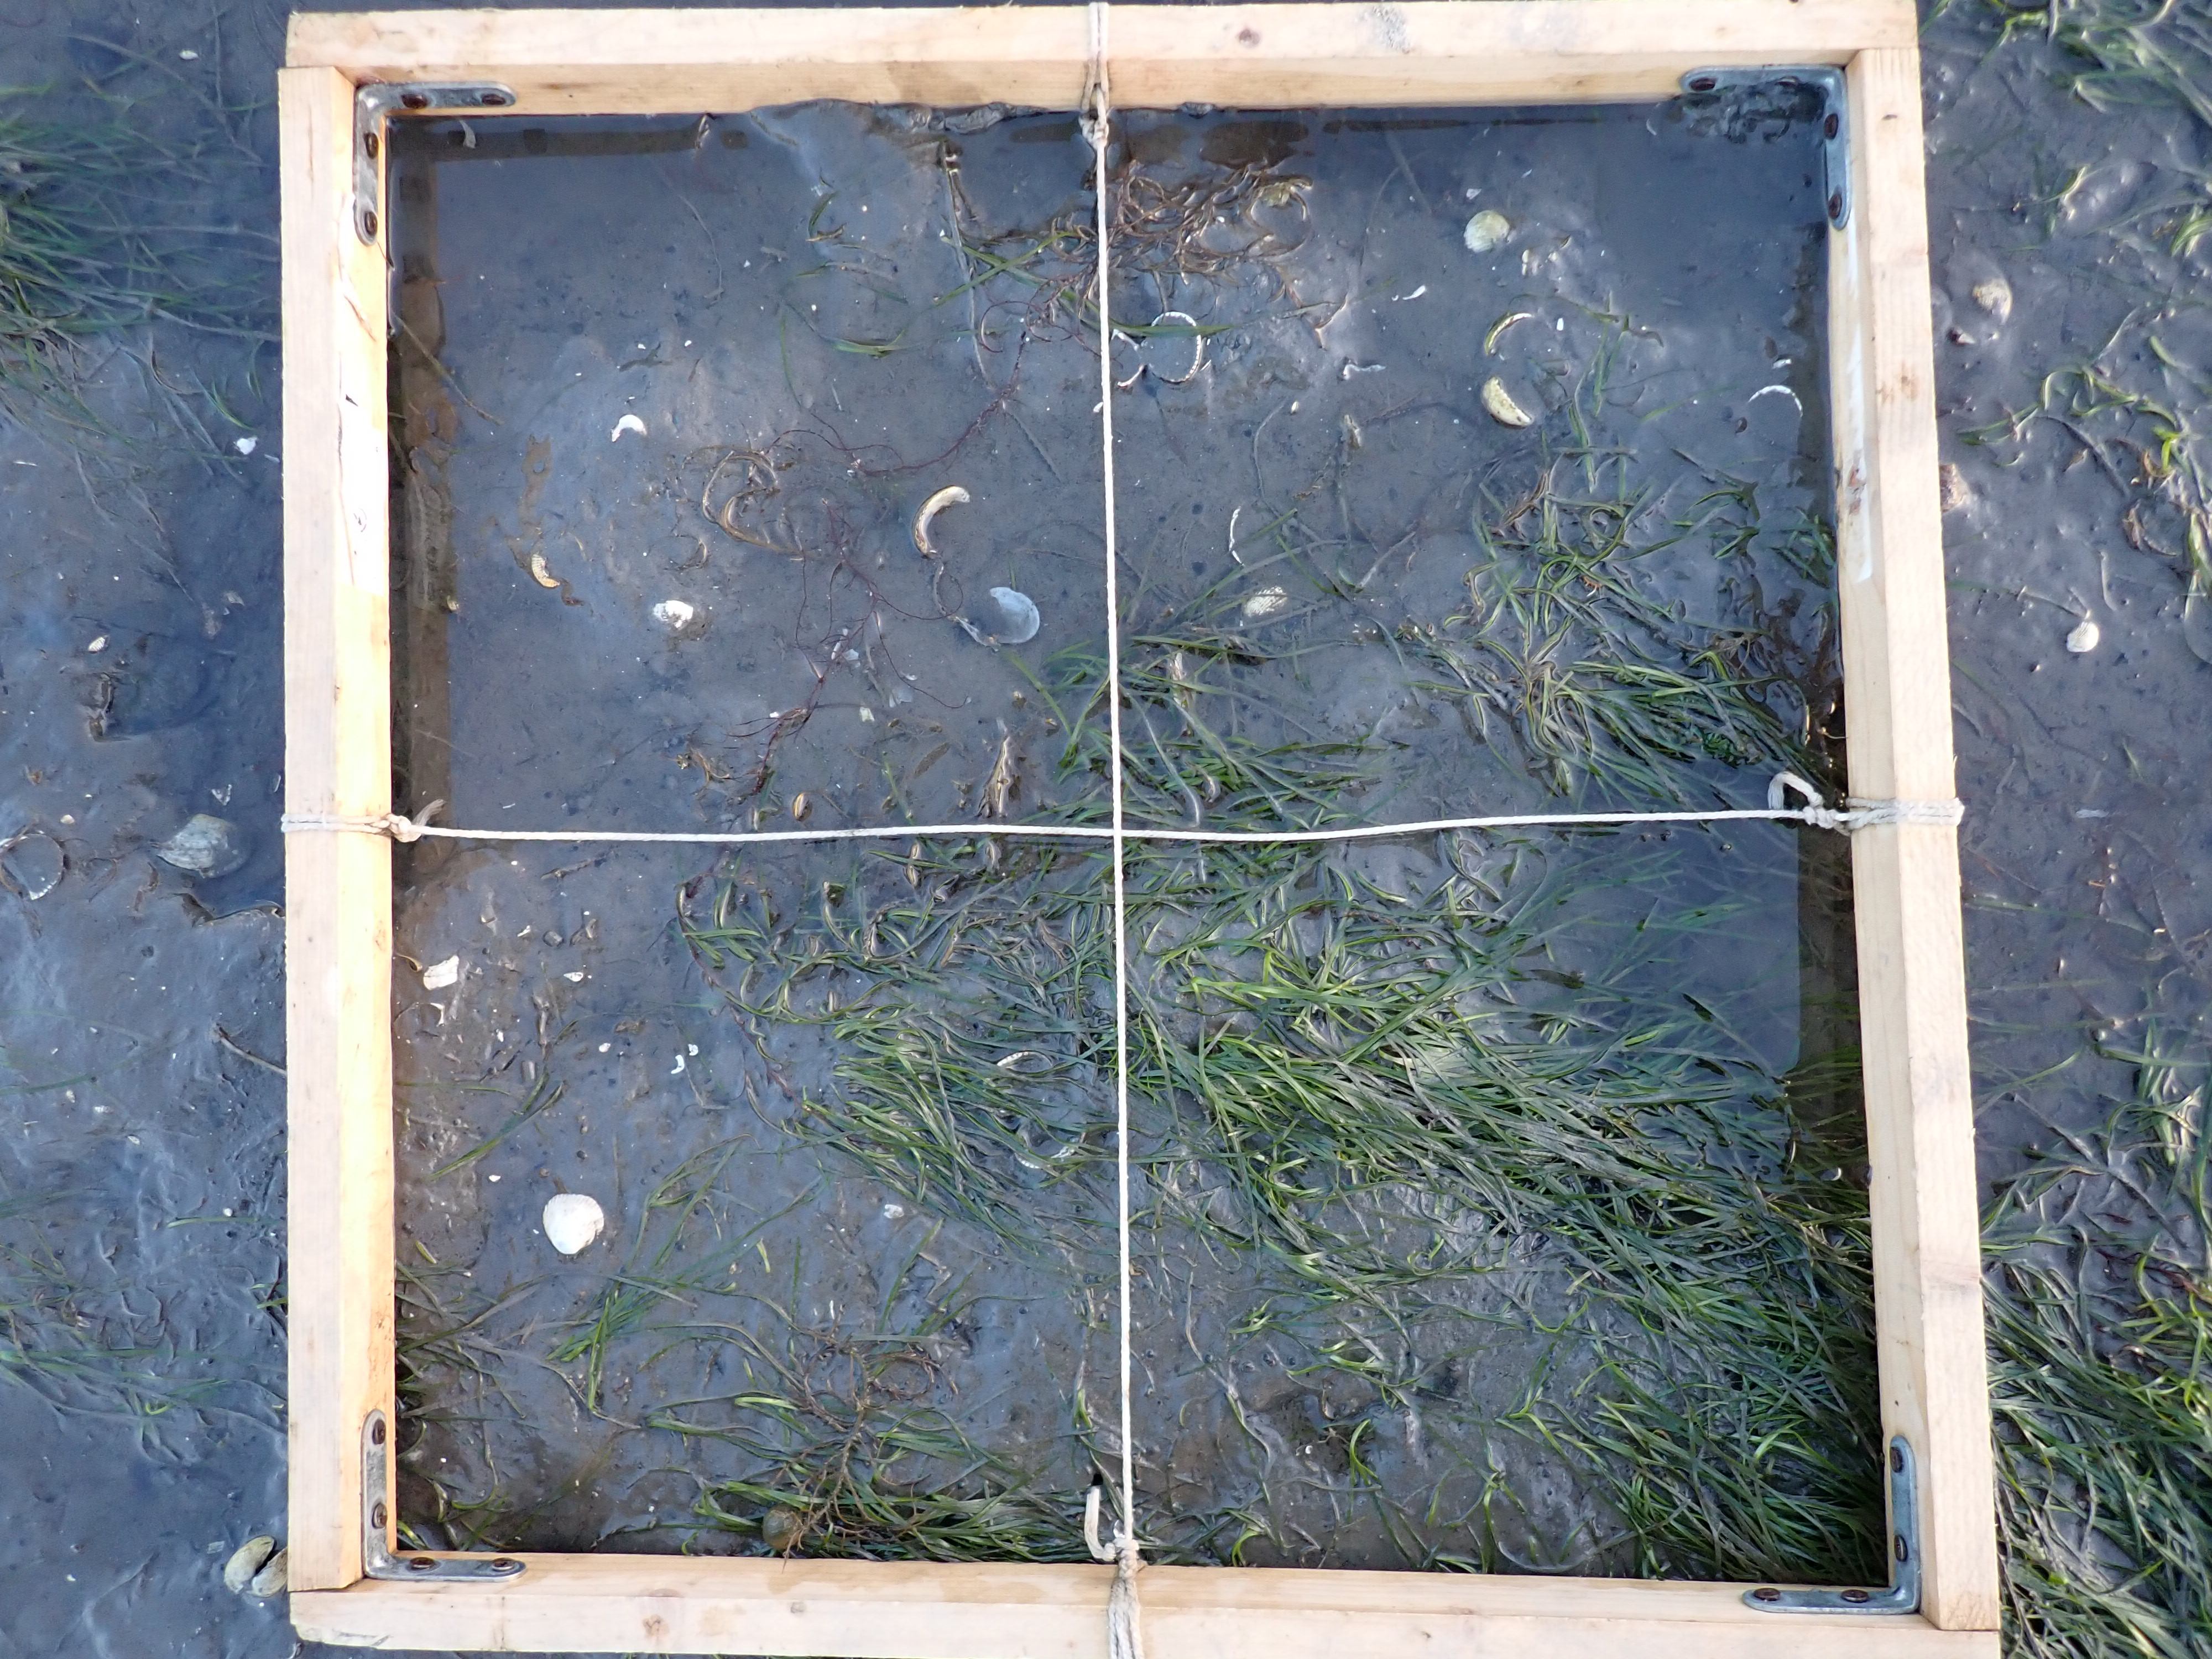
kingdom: Plantae
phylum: Tracheophyta
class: Liliopsida
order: Alismatales
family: Zosteraceae
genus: Zostera
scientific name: Zostera noltii
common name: Dwarf eelgrass
